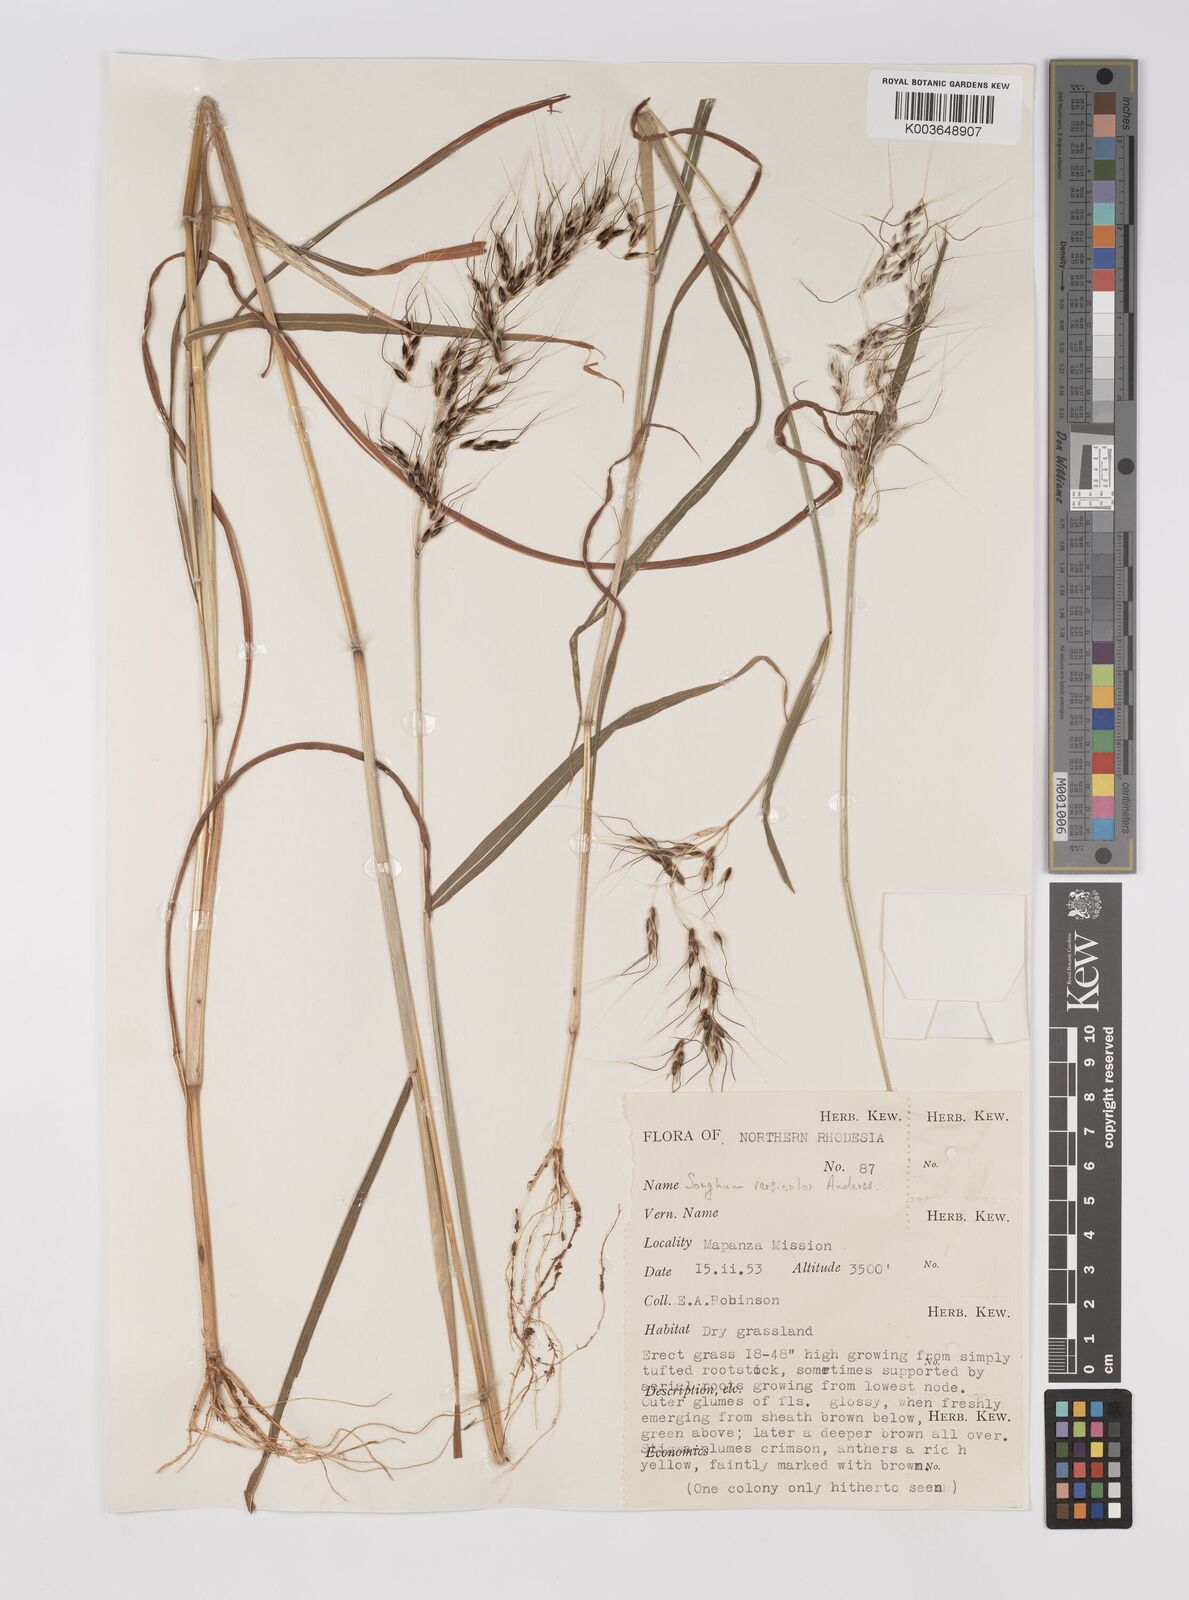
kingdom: Plantae
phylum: Tracheophyta
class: Liliopsida
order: Poales
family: Poaceae
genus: Sarga
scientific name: Sarga versicolor
